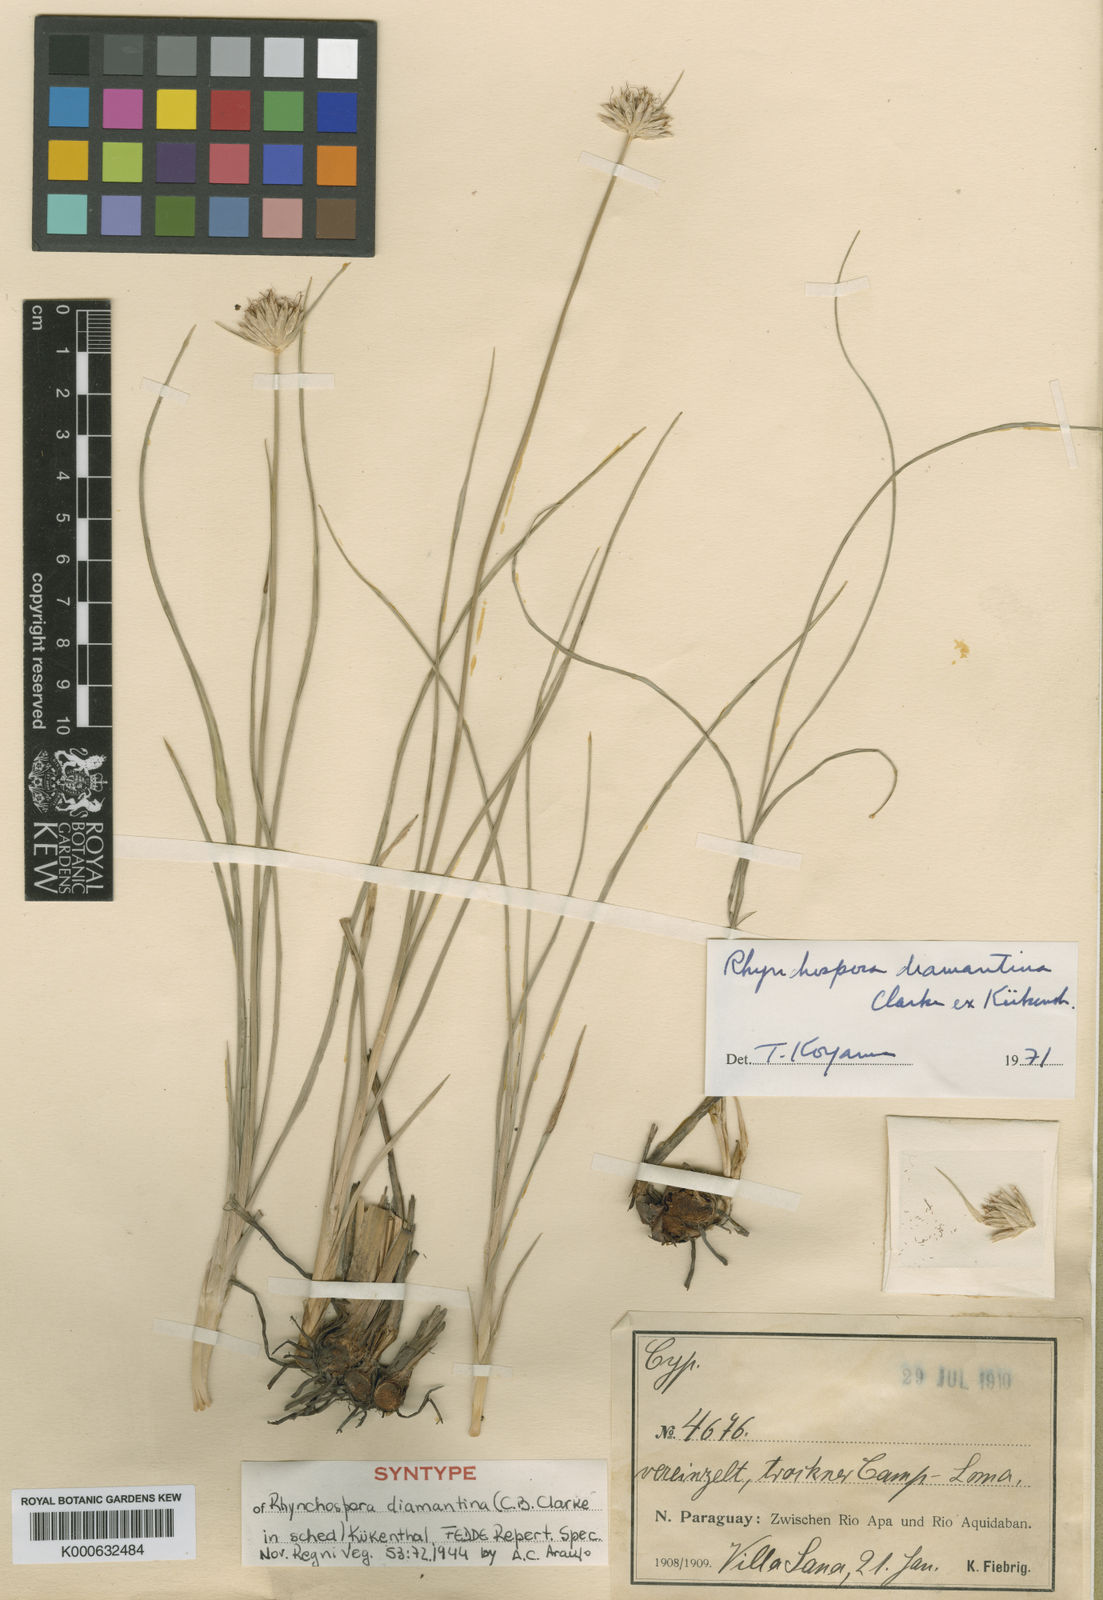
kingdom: Plantae
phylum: Tracheophyta
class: Liliopsida
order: Poales
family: Cyperaceae
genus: Rhynchospora
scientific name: Rhynchospora
